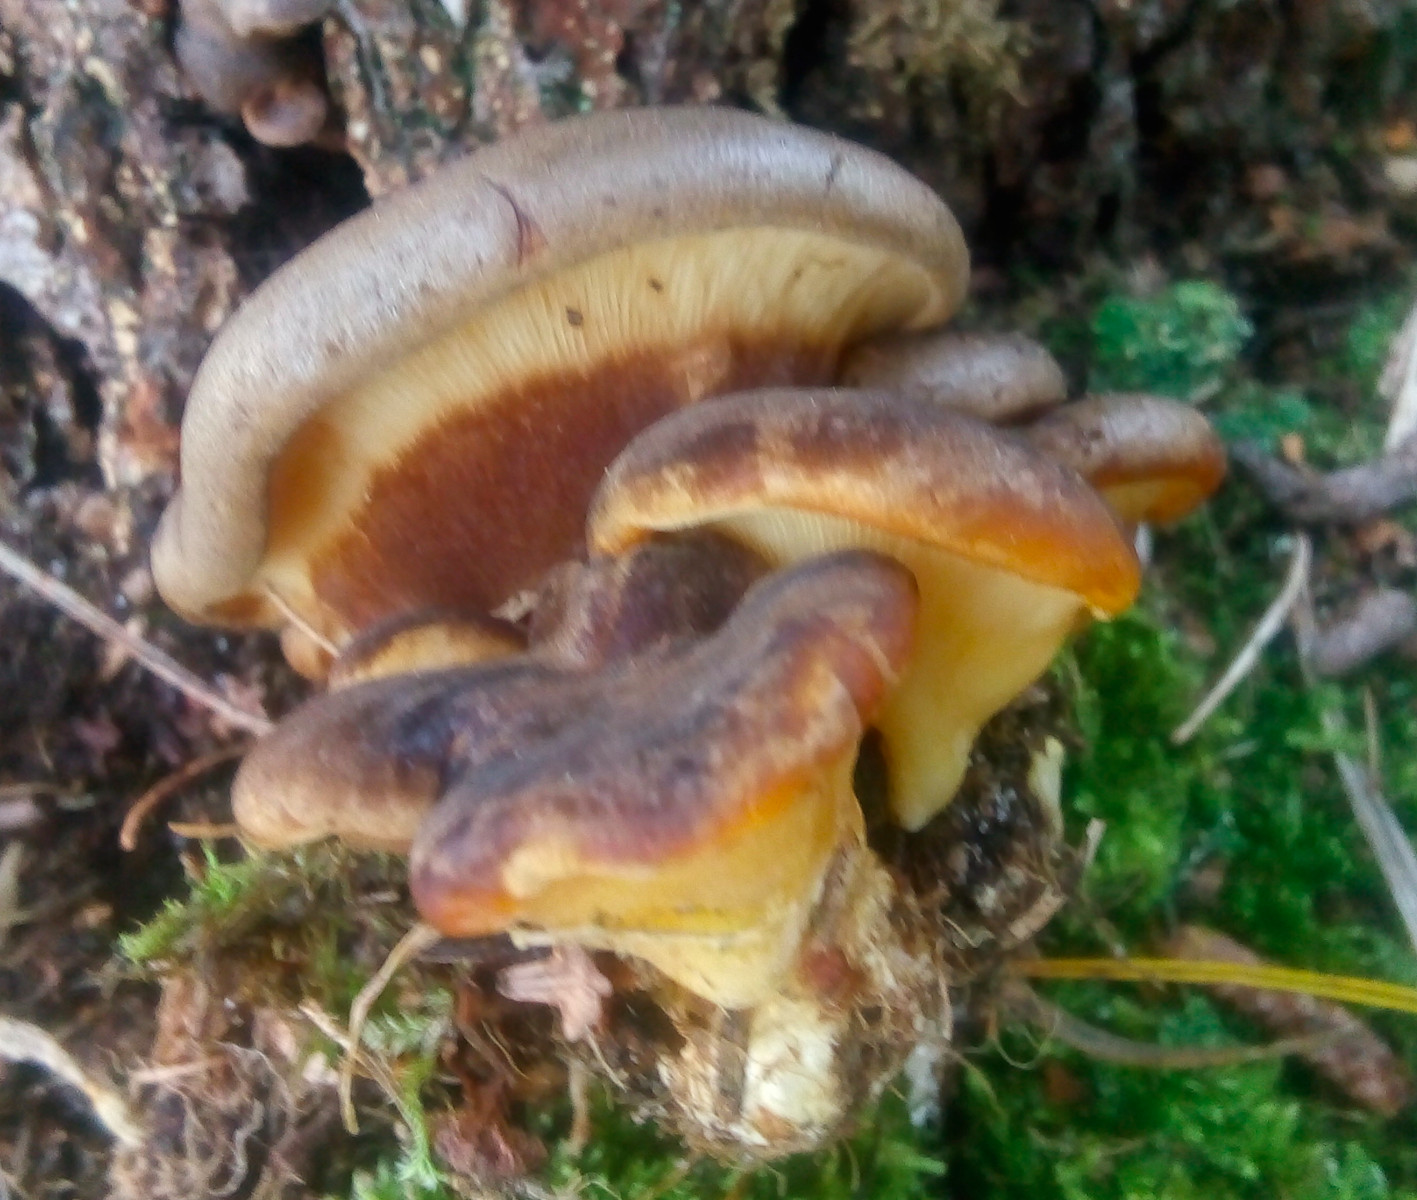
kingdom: Fungi
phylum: Basidiomycota
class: Agaricomycetes
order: Boletales
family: Tapinellaceae
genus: Tapinella
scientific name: Tapinella atrotomentosa
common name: sortfiltet viftesvamp
